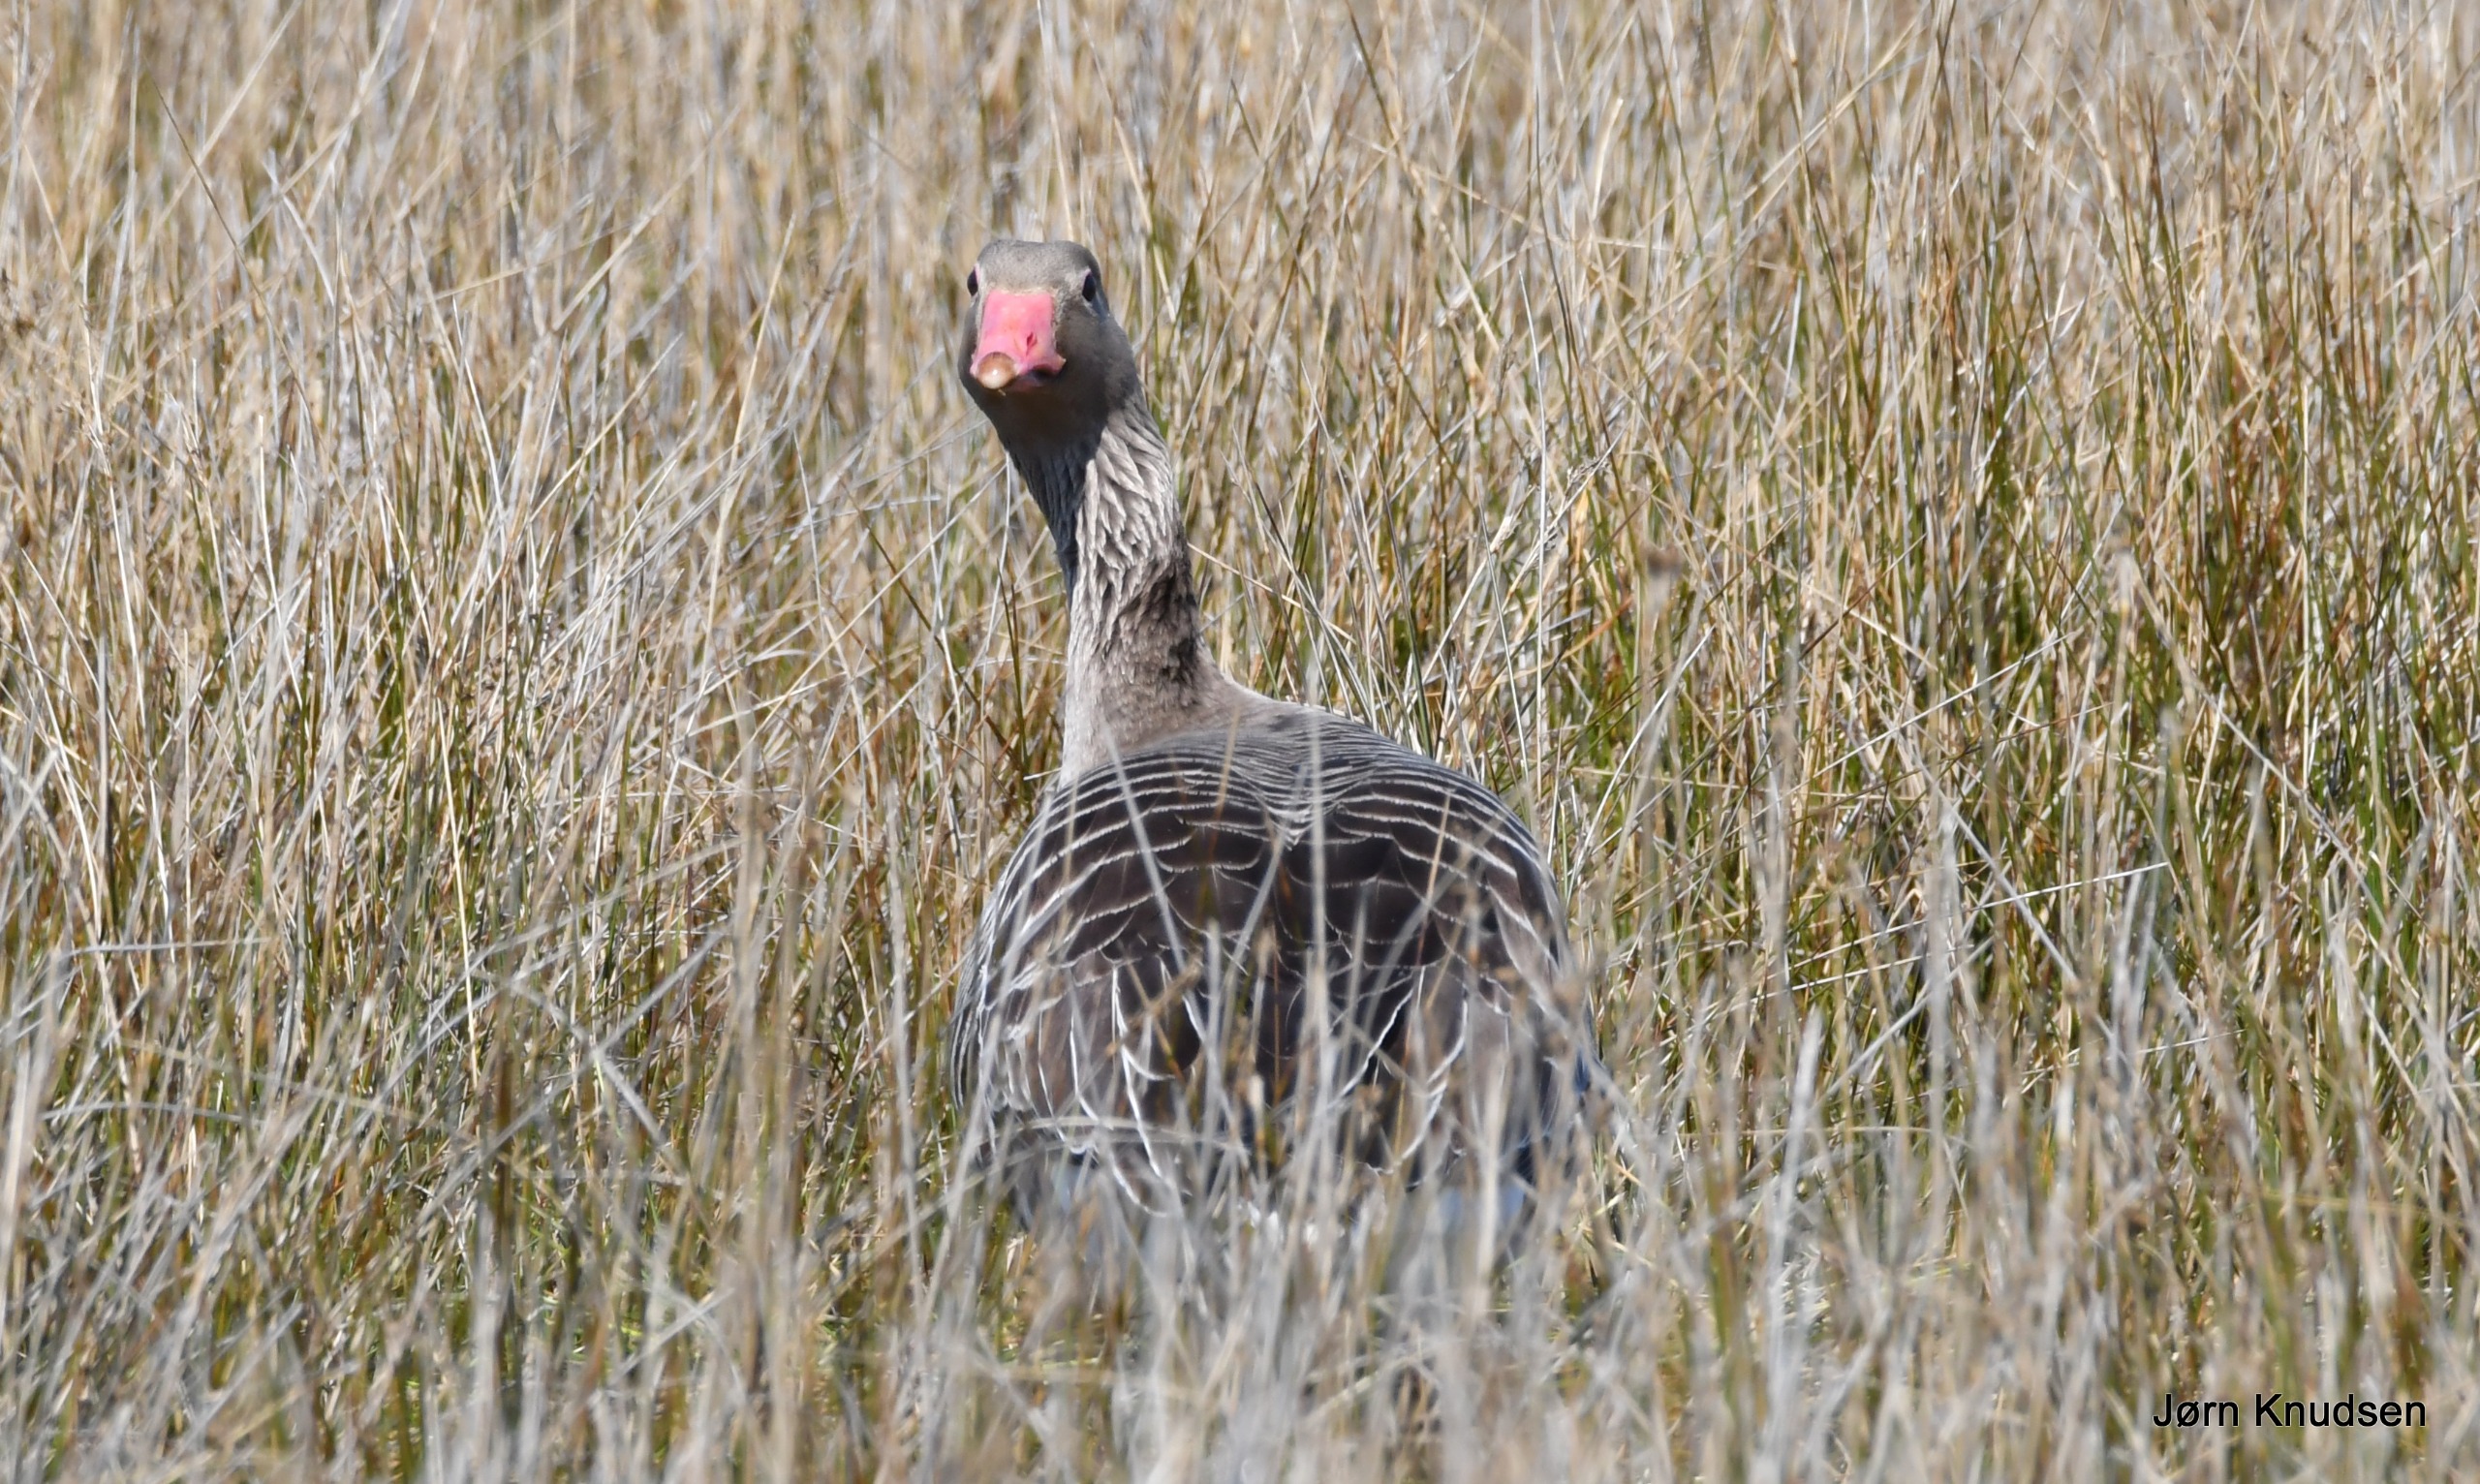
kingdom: Animalia
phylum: Chordata
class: Aves
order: Anseriformes
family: Anatidae
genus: Anser
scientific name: Anser anser
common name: Grågås
